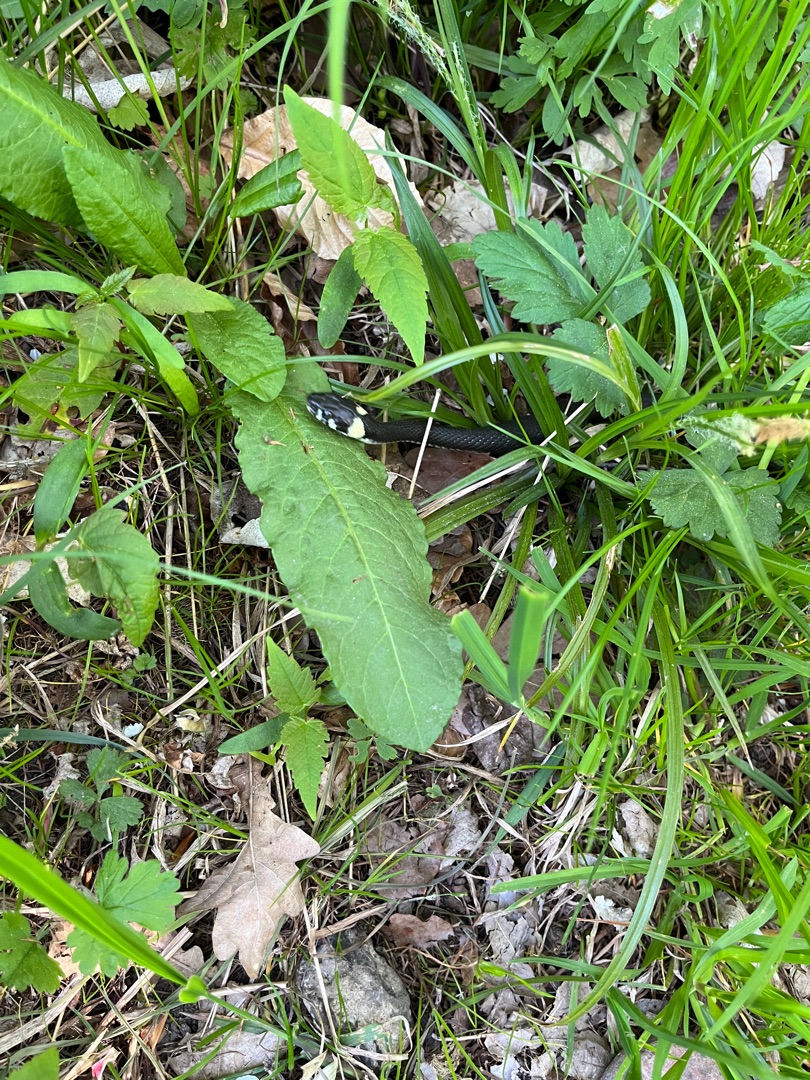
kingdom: Animalia
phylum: Chordata
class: Squamata
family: Colubridae
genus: Natrix
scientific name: Natrix natrix
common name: Snog
